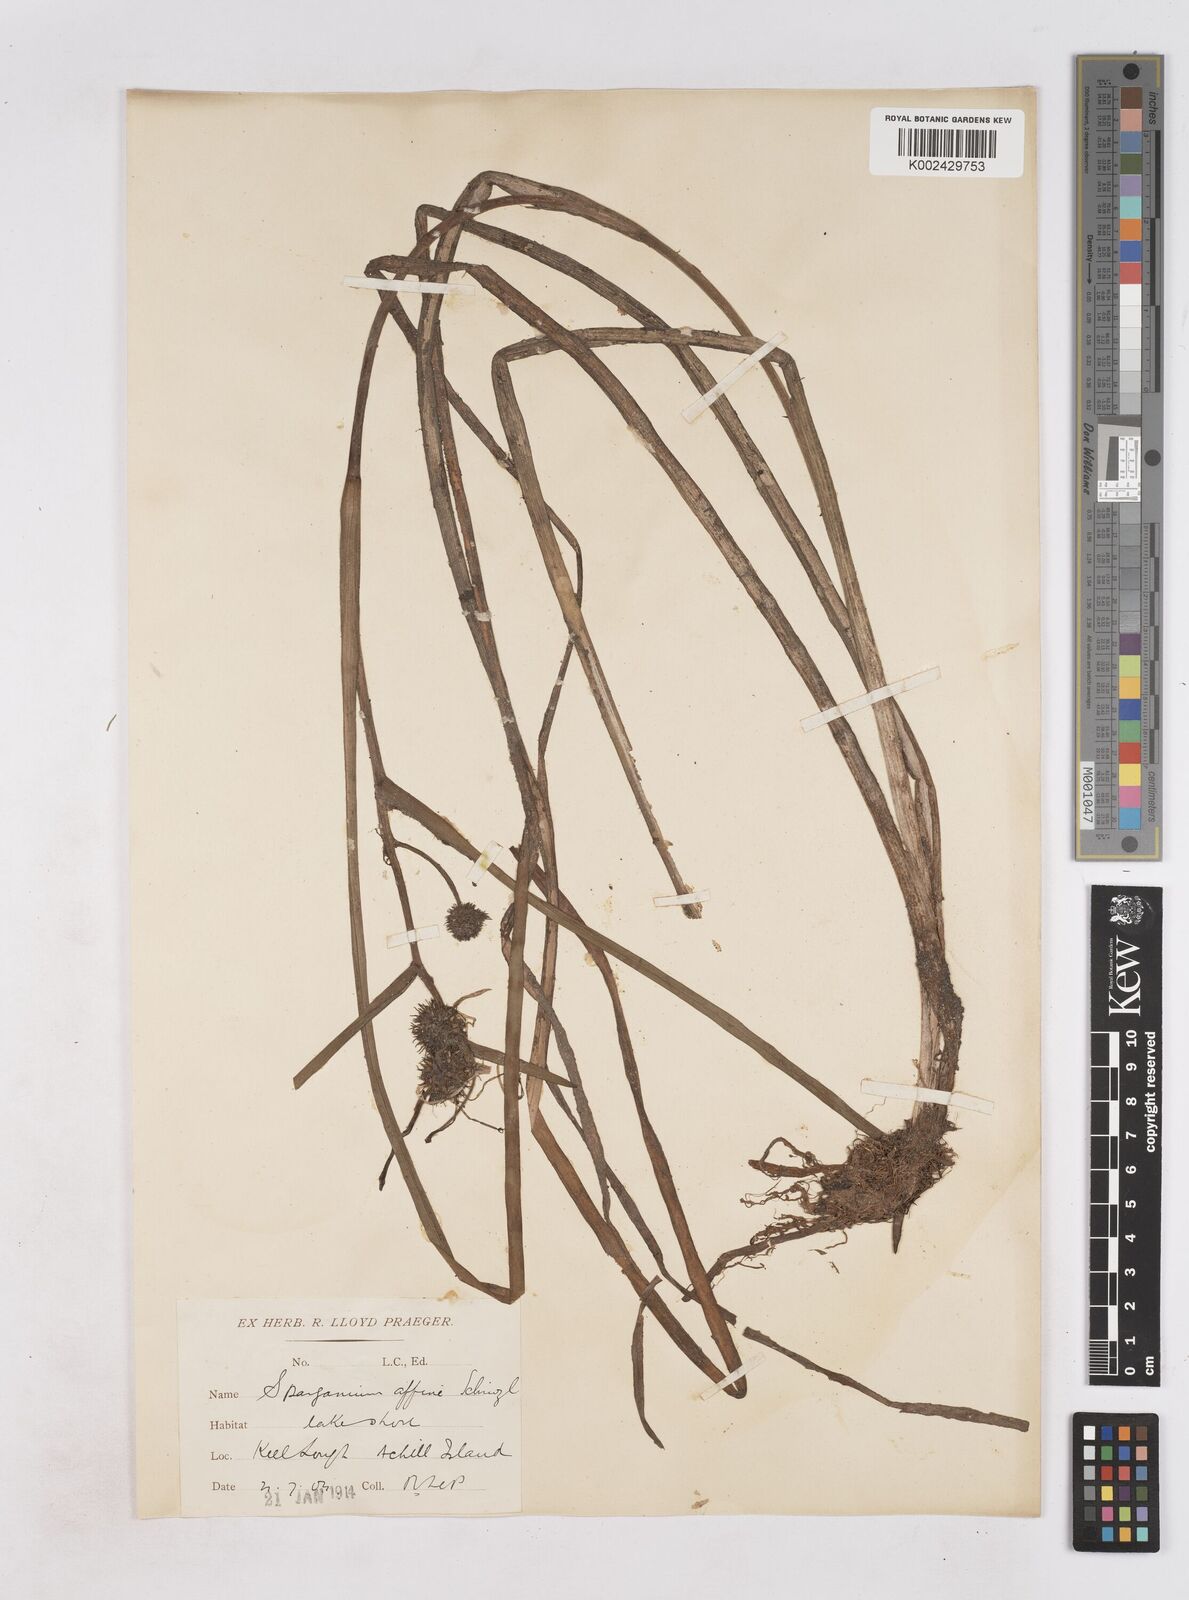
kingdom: Plantae
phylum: Tracheophyta
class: Liliopsida
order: Poales
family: Typhaceae
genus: Sparganium
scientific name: Sparganium angustifolium
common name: Floating bur-reed
